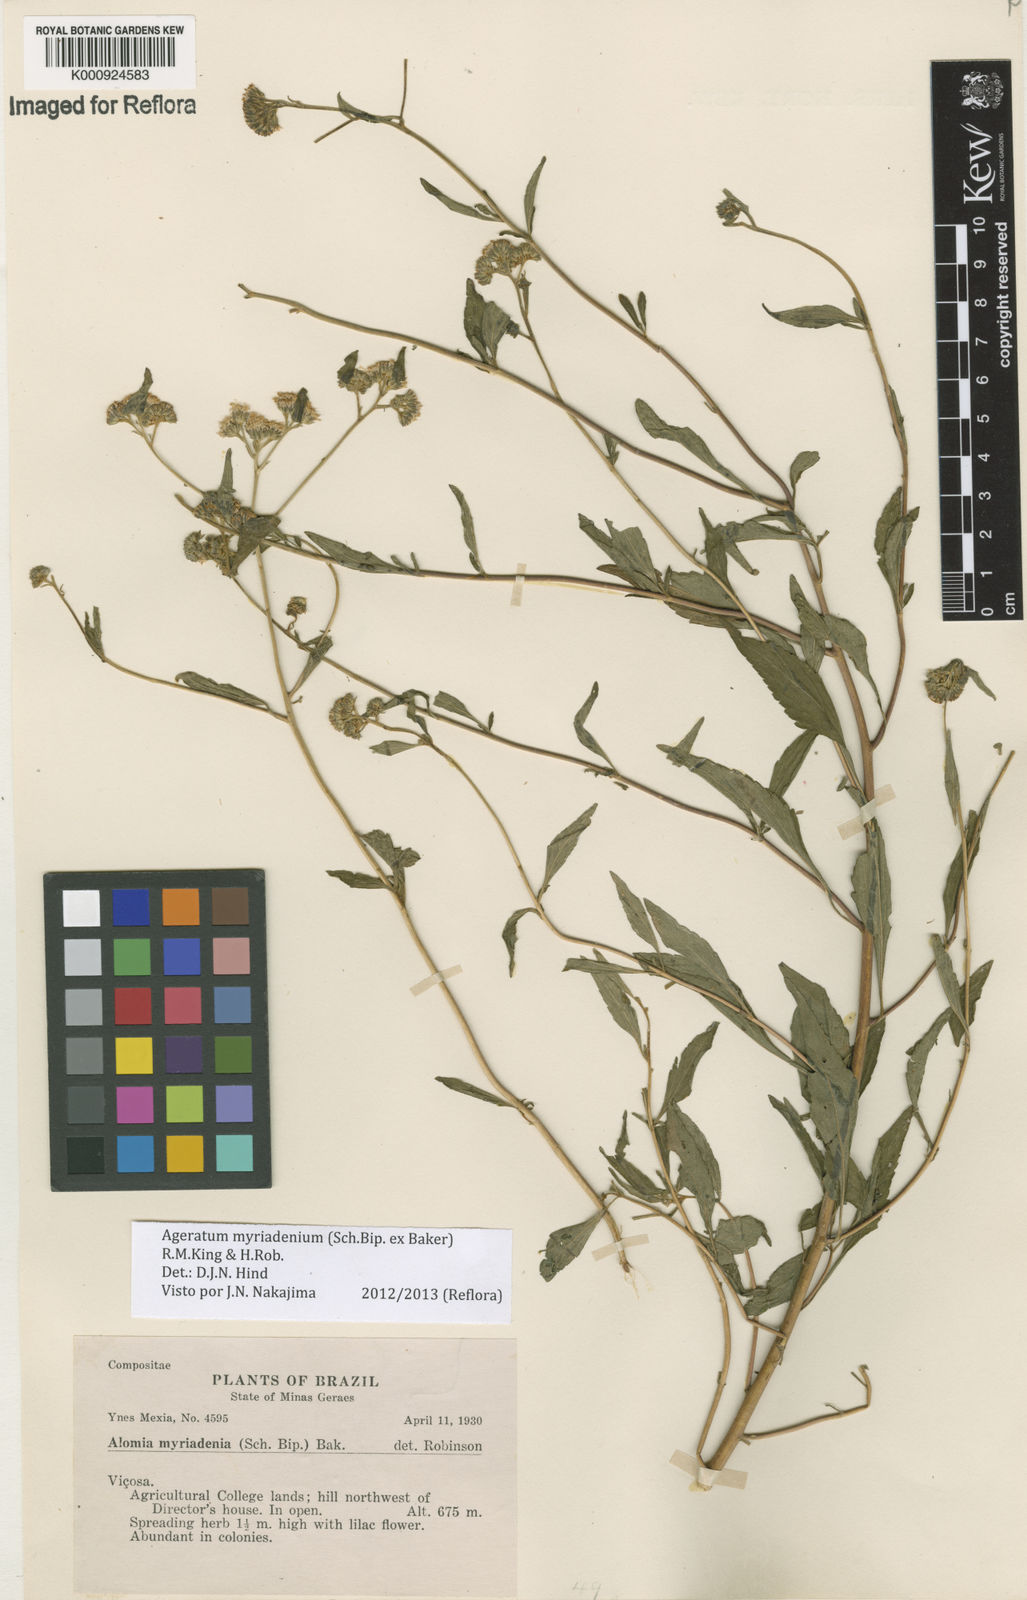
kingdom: Plantae
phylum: Tracheophyta
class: Magnoliopsida
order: Asterales
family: Asteraceae
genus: Ageratum
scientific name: Ageratum myriadenium
